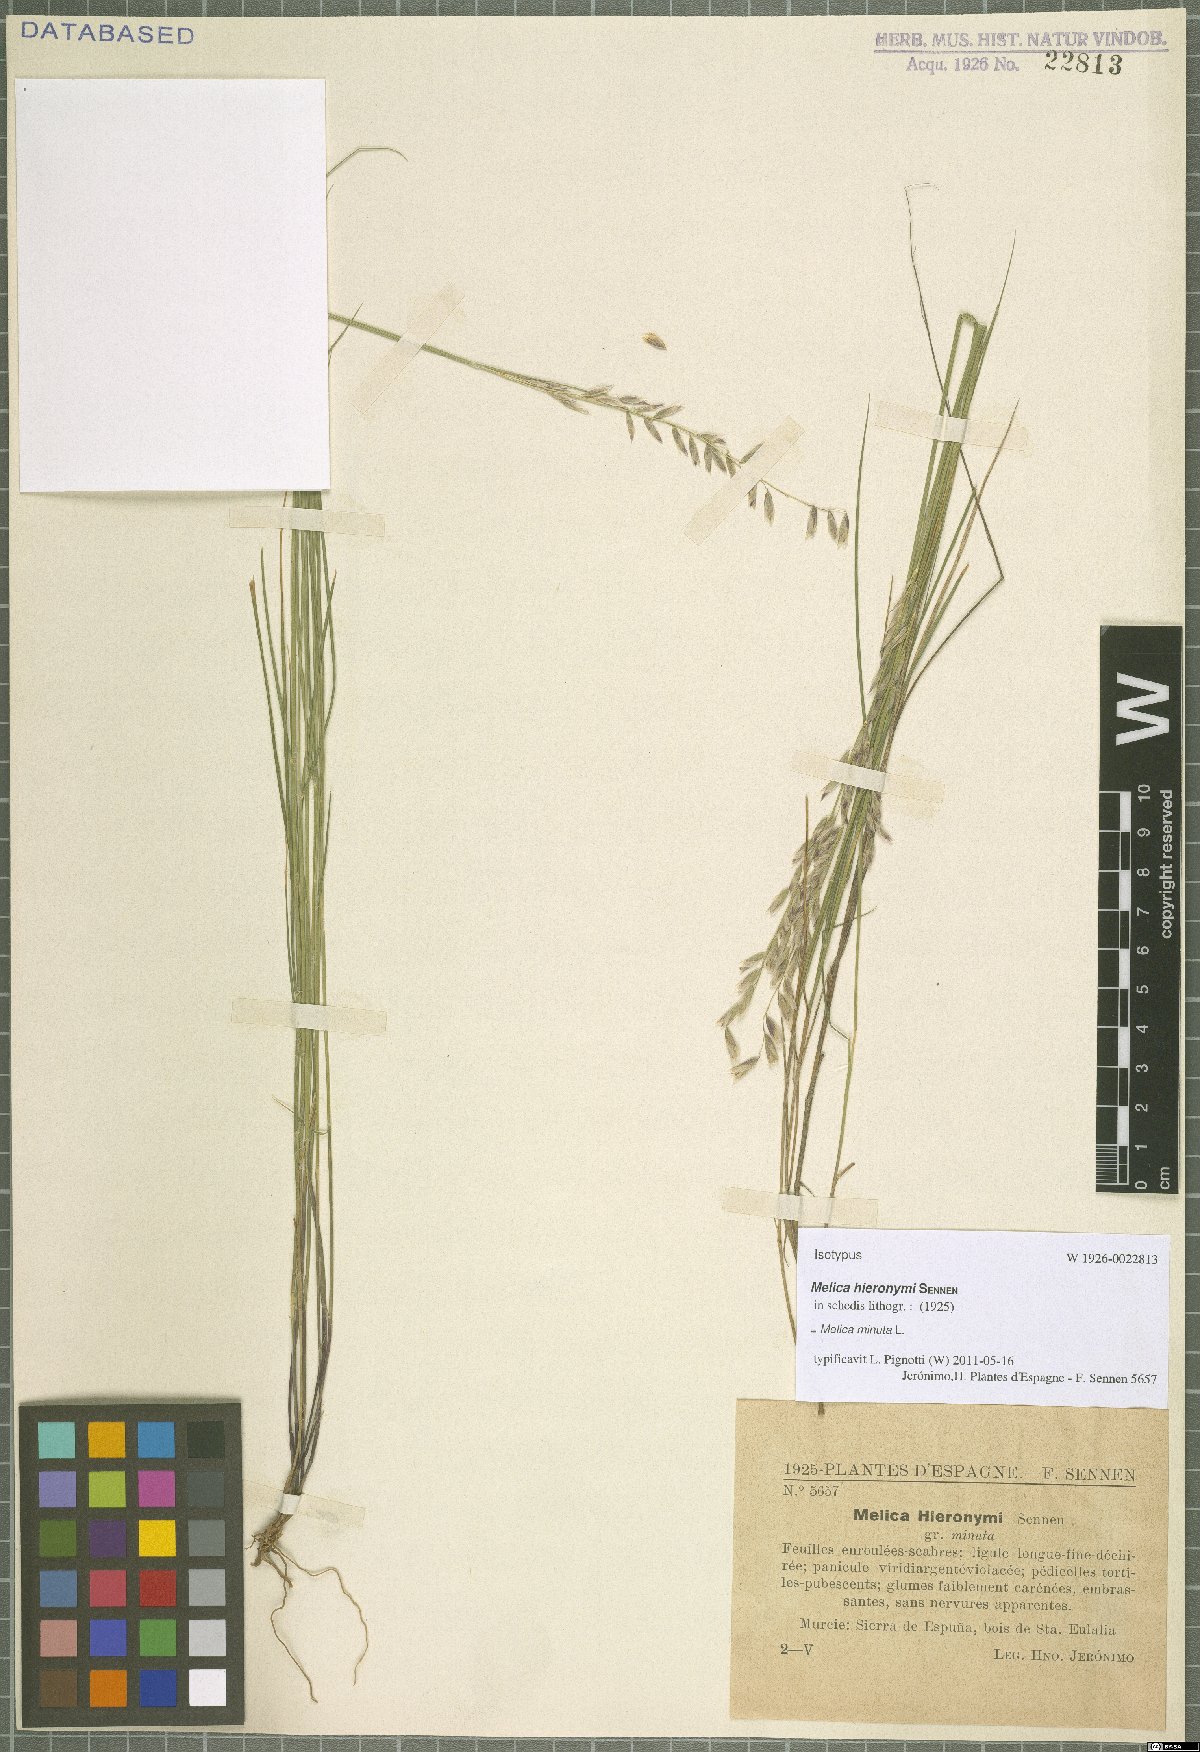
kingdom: Plantae
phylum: Tracheophyta
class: Liliopsida
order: Poales
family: Poaceae
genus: Melica
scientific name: Melica minuta
